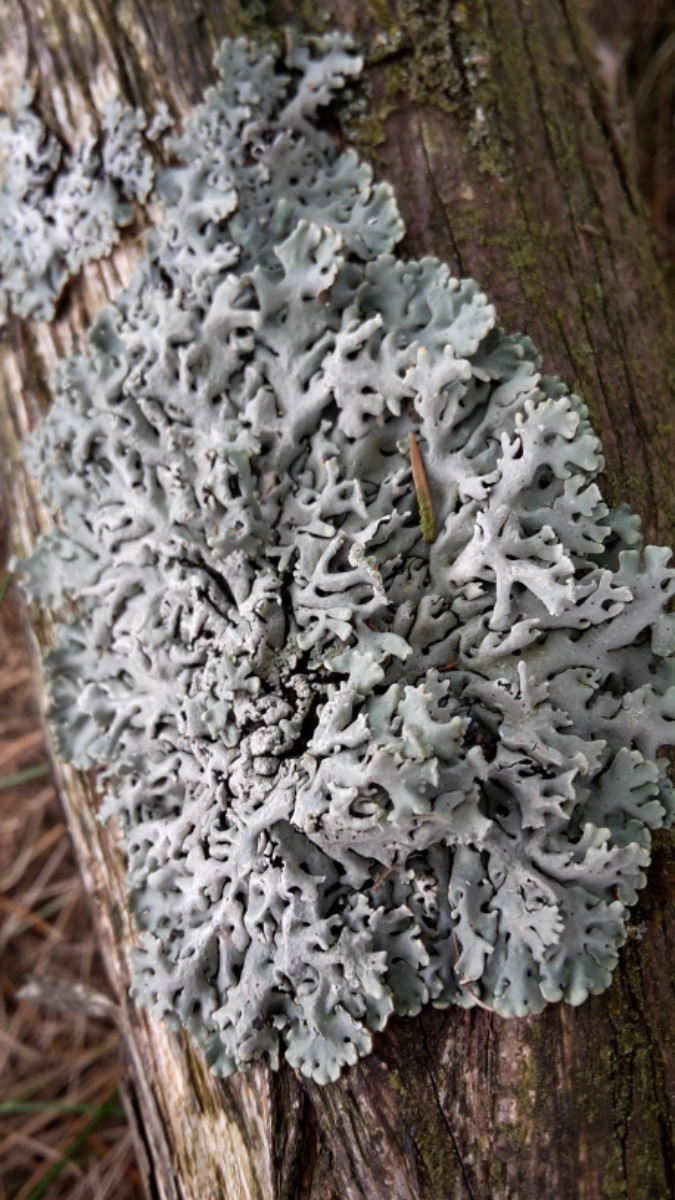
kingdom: Fungi
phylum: Ascomycota
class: Lecanoromycetes
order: Lecanorales
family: Parmeliaceae
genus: Hypogymnia
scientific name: Hypogymnia physodes
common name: almindelig kvistlav
